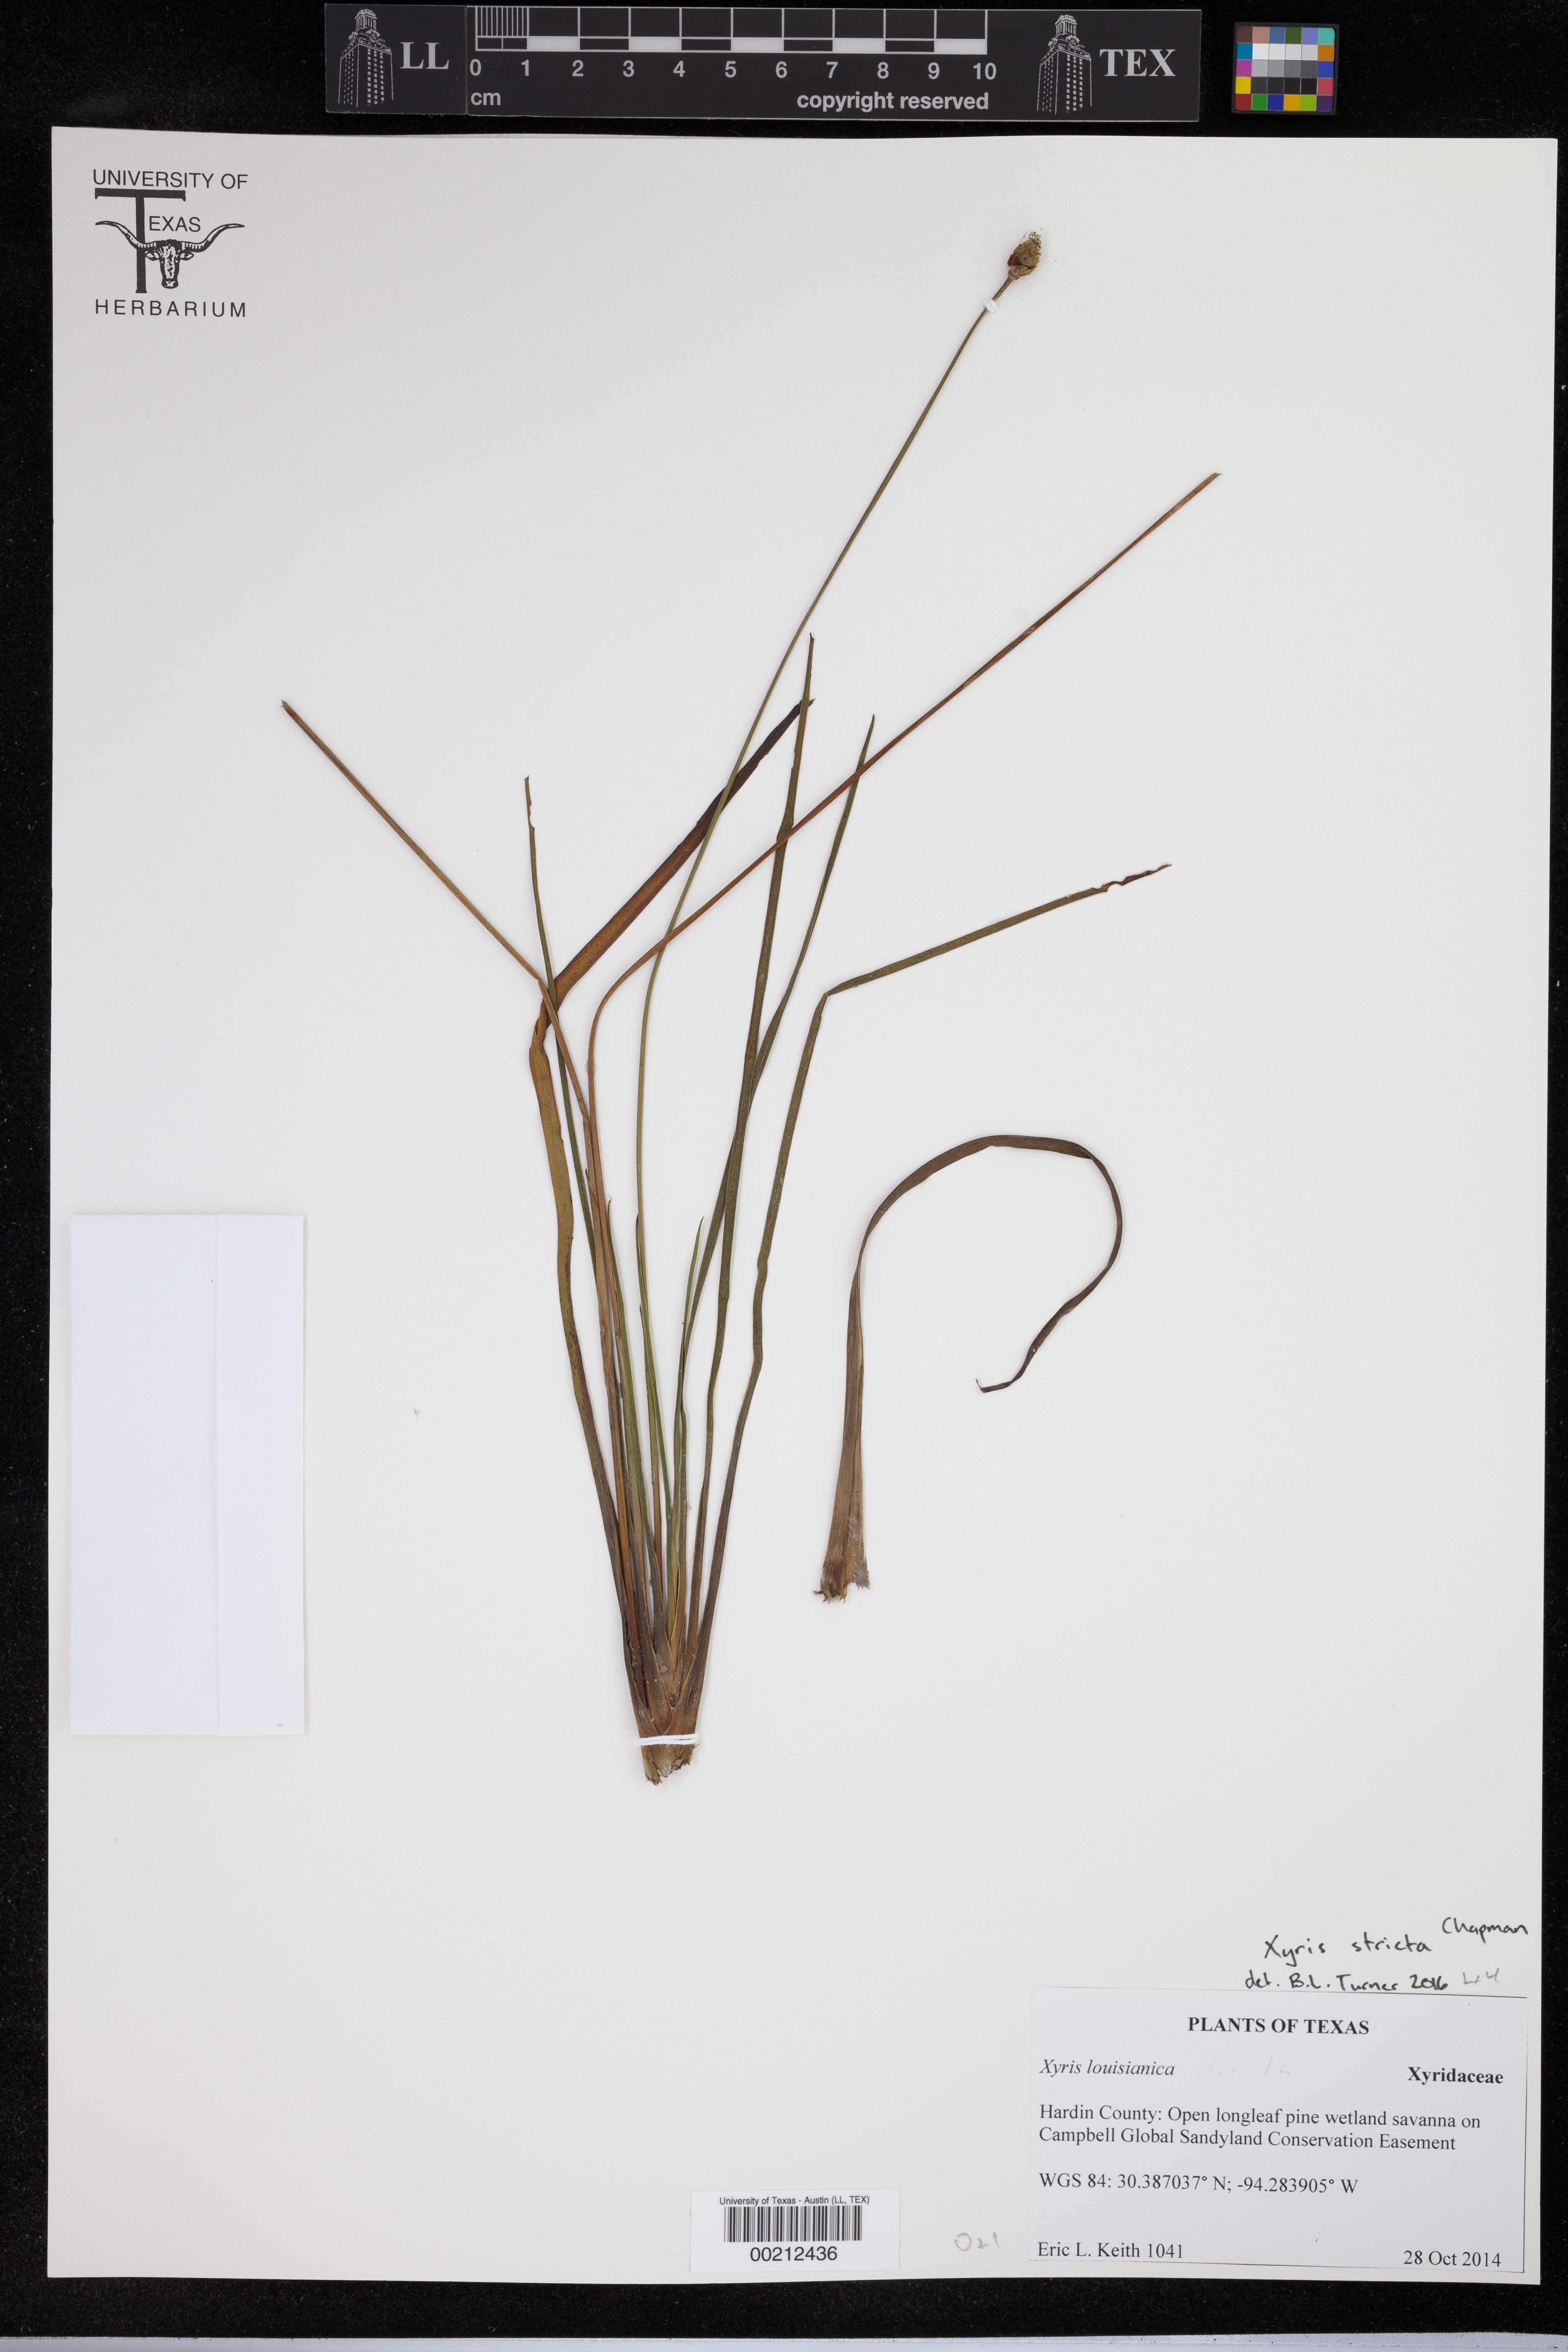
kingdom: Plantae
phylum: Tracheophyta
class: Magnoliopsida
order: Cornales
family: Loasaceae
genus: Cevallia
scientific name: Cevallia sinuata
